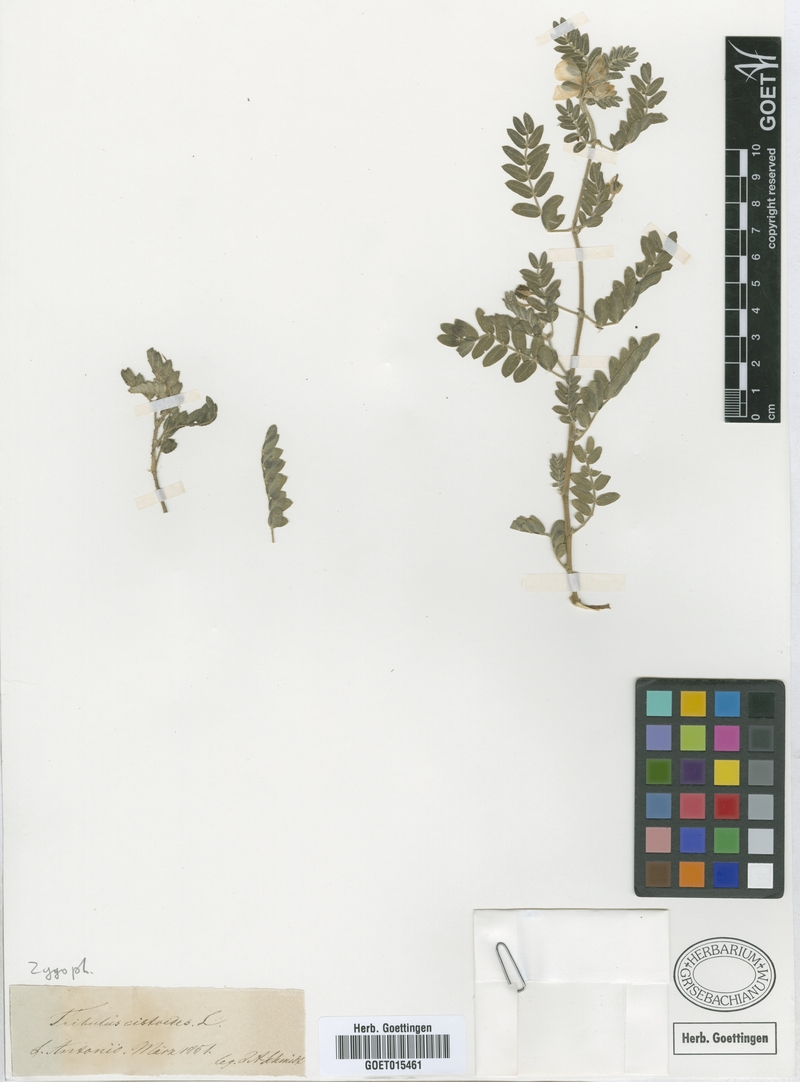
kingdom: Plantae
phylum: Tracheophyta
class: Magnoliopsida
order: Zygophyllales
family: Zygophyllaceae
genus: Tribulus
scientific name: Tribulus cistoides
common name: Jamaican feverplant
